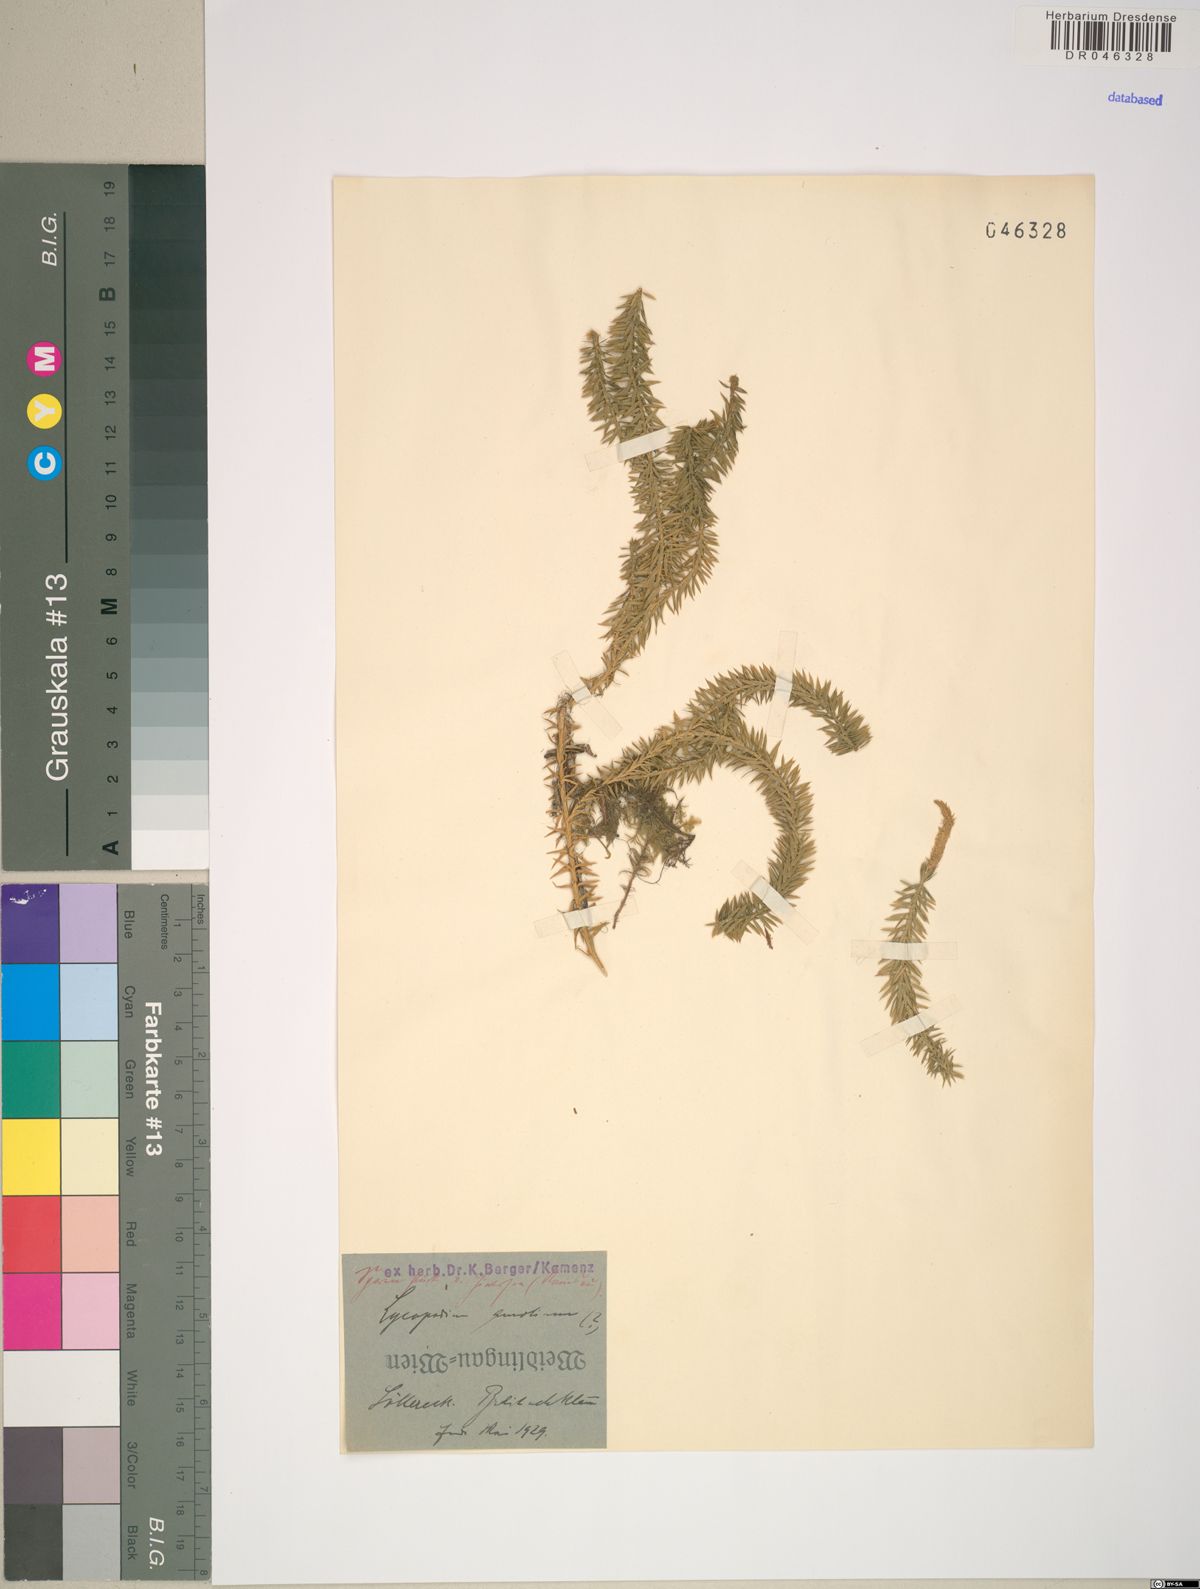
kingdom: Plantae
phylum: Tracheophyta
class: Lycopodiopsida
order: Lycopodiales
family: Lycopodiaceae
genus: Spinulum
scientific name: Spinulum annotinum
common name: Interrupted club-moss
